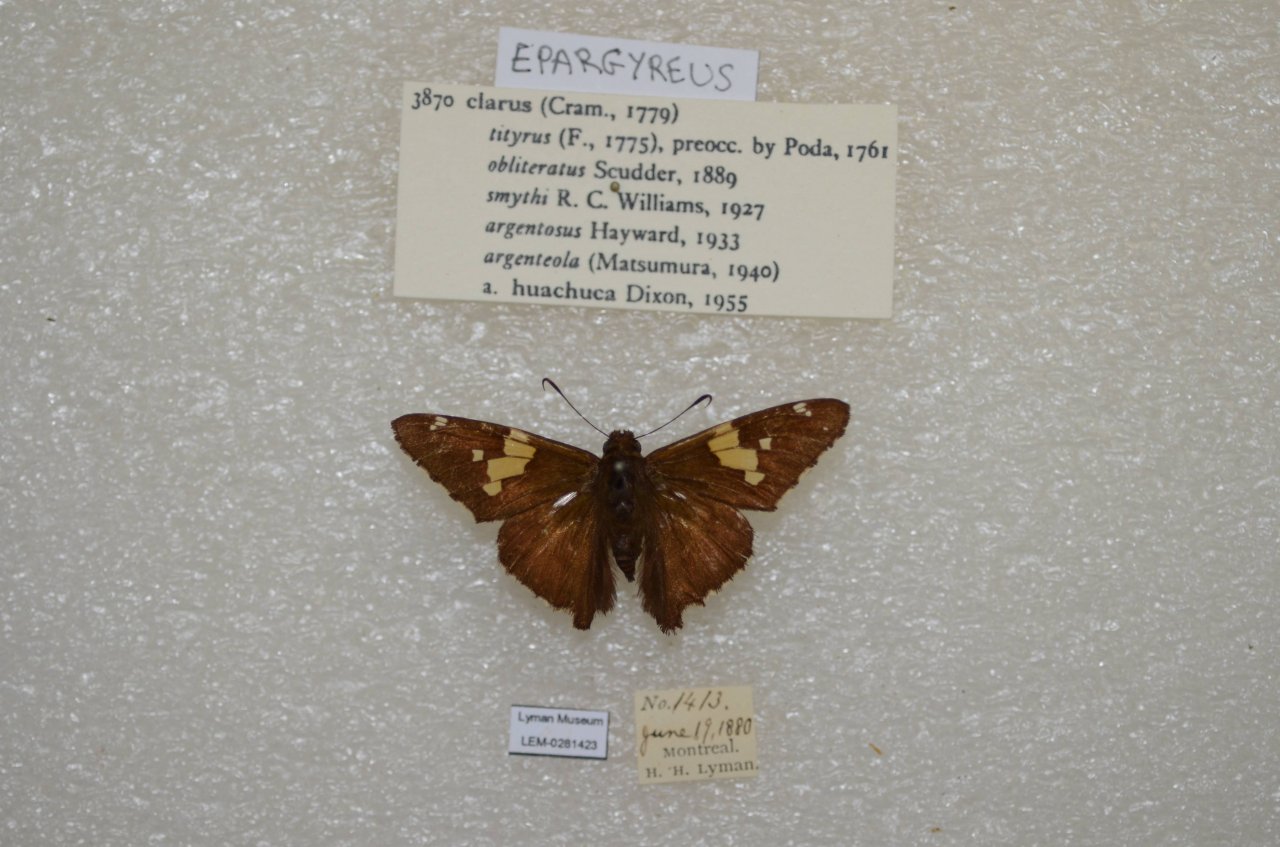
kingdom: Animalia
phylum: Arthropoda
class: Insecta
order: Lepidoptera
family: Hesperiidae
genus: Epargyreus
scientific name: Epargyreus clarus
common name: Silver-spotted Skipper
